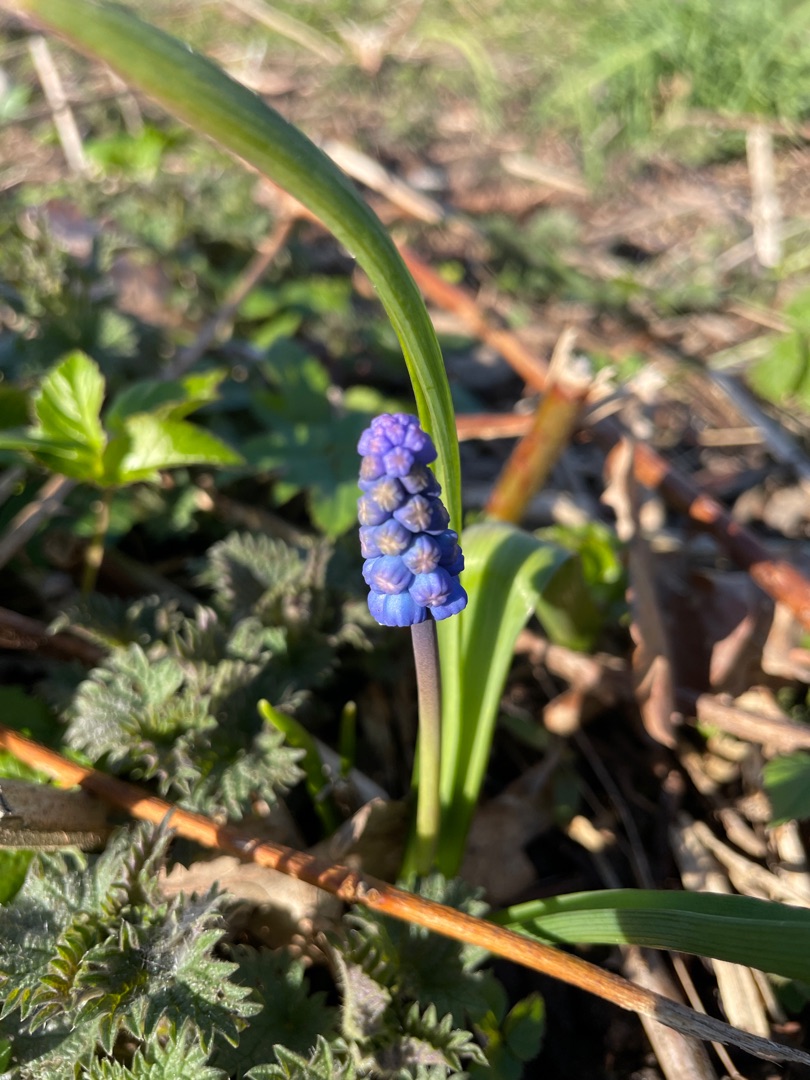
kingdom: Plantae
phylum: Tracheophyta
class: Liliopsida
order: Asparagales
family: Asparagaceae
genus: Muscari
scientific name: Muscari botryoides
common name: Perlehyacint
